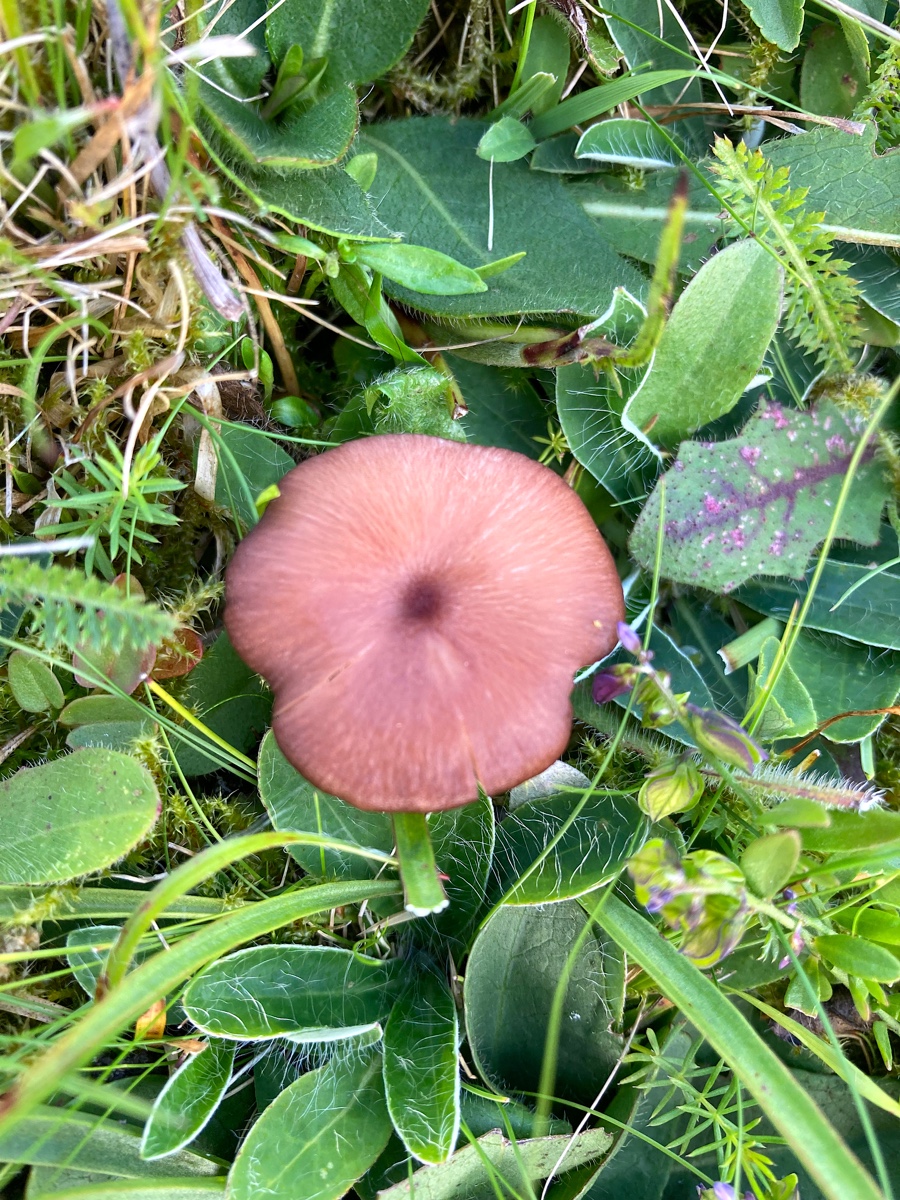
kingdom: Fungi
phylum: Basidiomycota
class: Agaricomycetes
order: Agaricales
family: Entolomataceae
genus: Entoloma
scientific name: Entoloma
